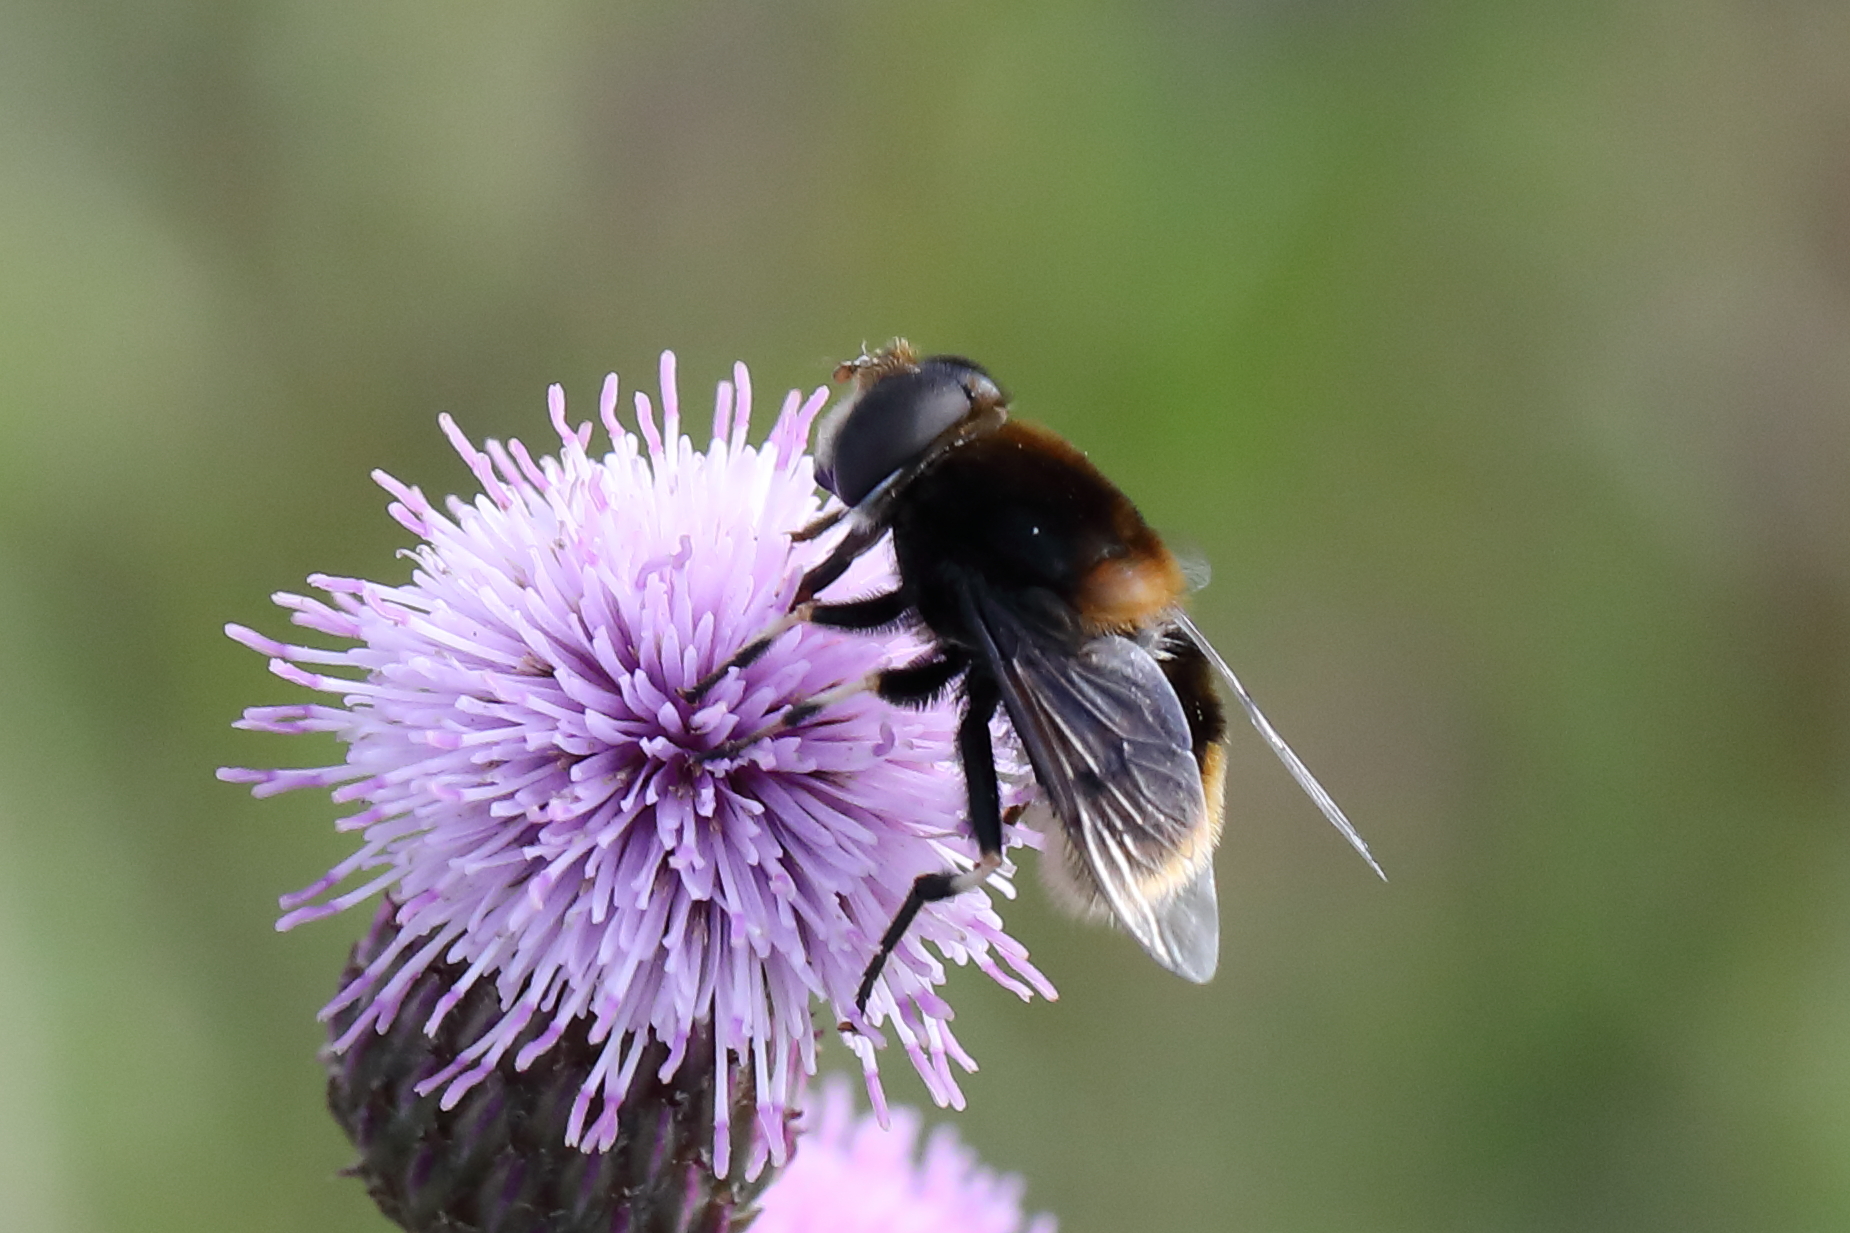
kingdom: Animalia
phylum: Arthropoda
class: Insecta
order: Diptera
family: Syrphidae
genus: Eristalis
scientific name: Eristalis intricaria
